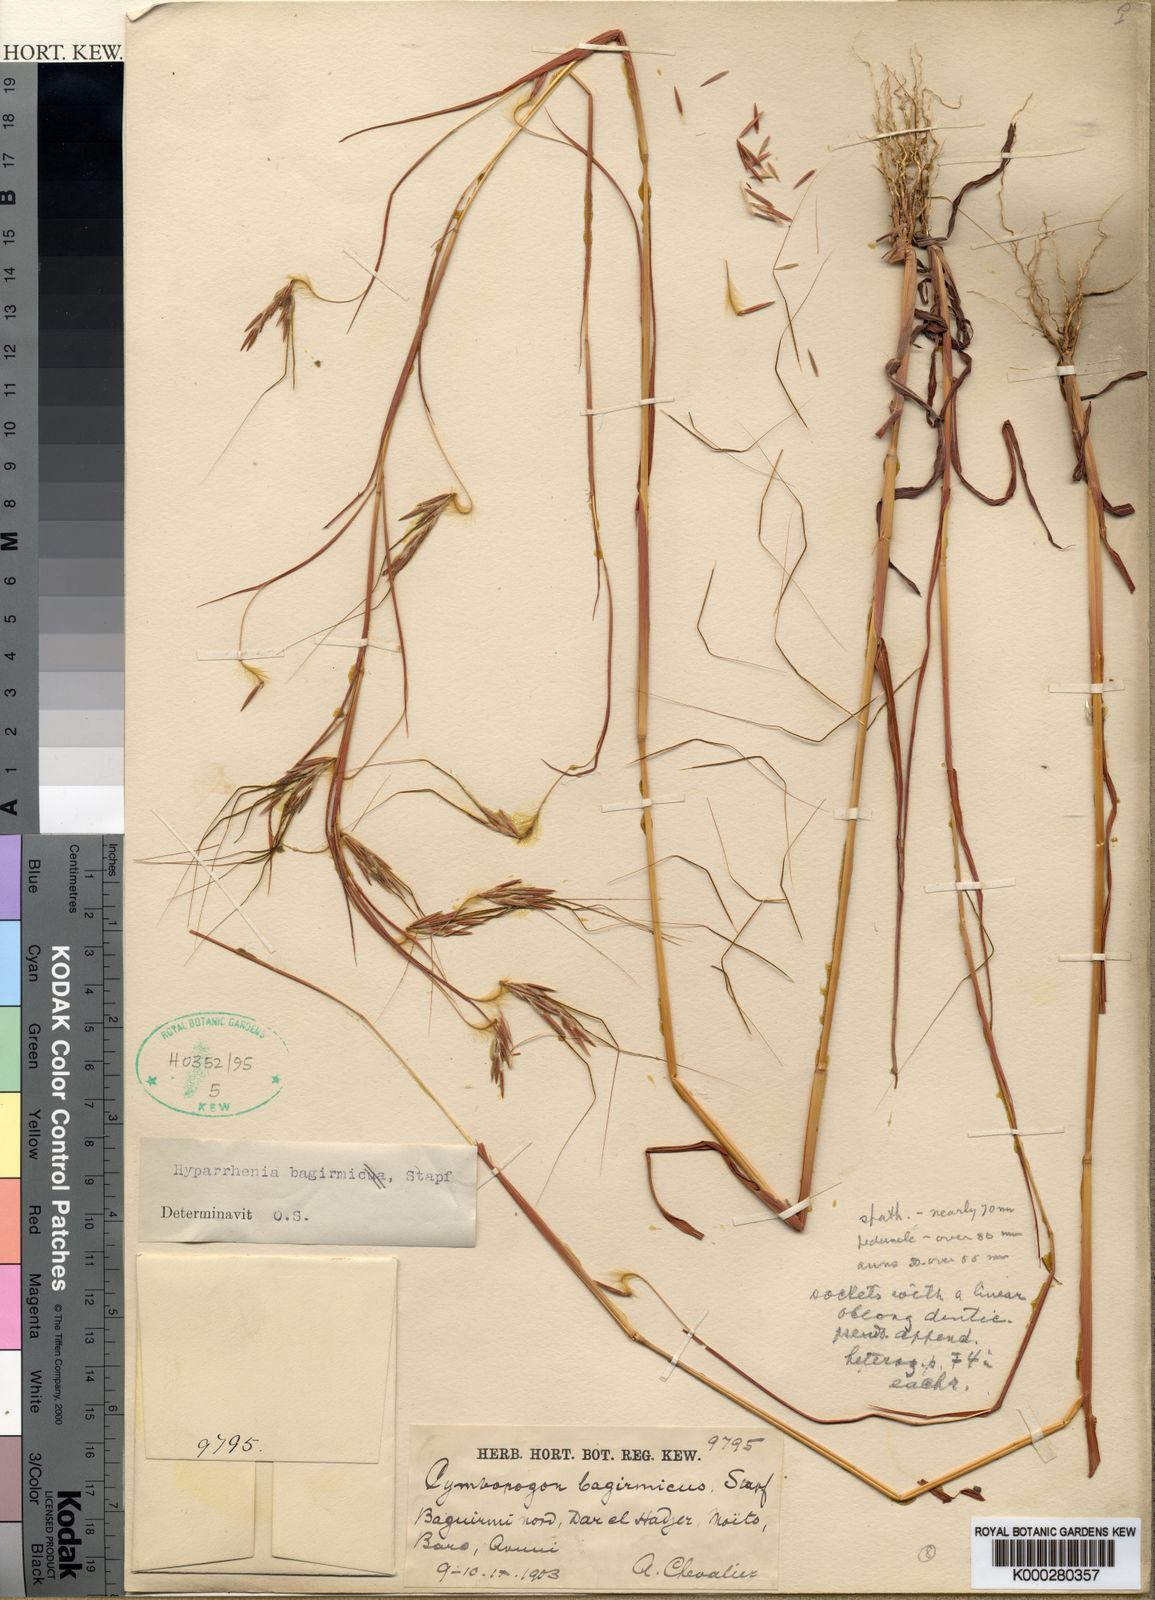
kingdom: Plantae
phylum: Tracheophyta
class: Liliopsida
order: Poales
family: Poaceae
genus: Hyparrhenia
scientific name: Hyparrhenia bagirmica
